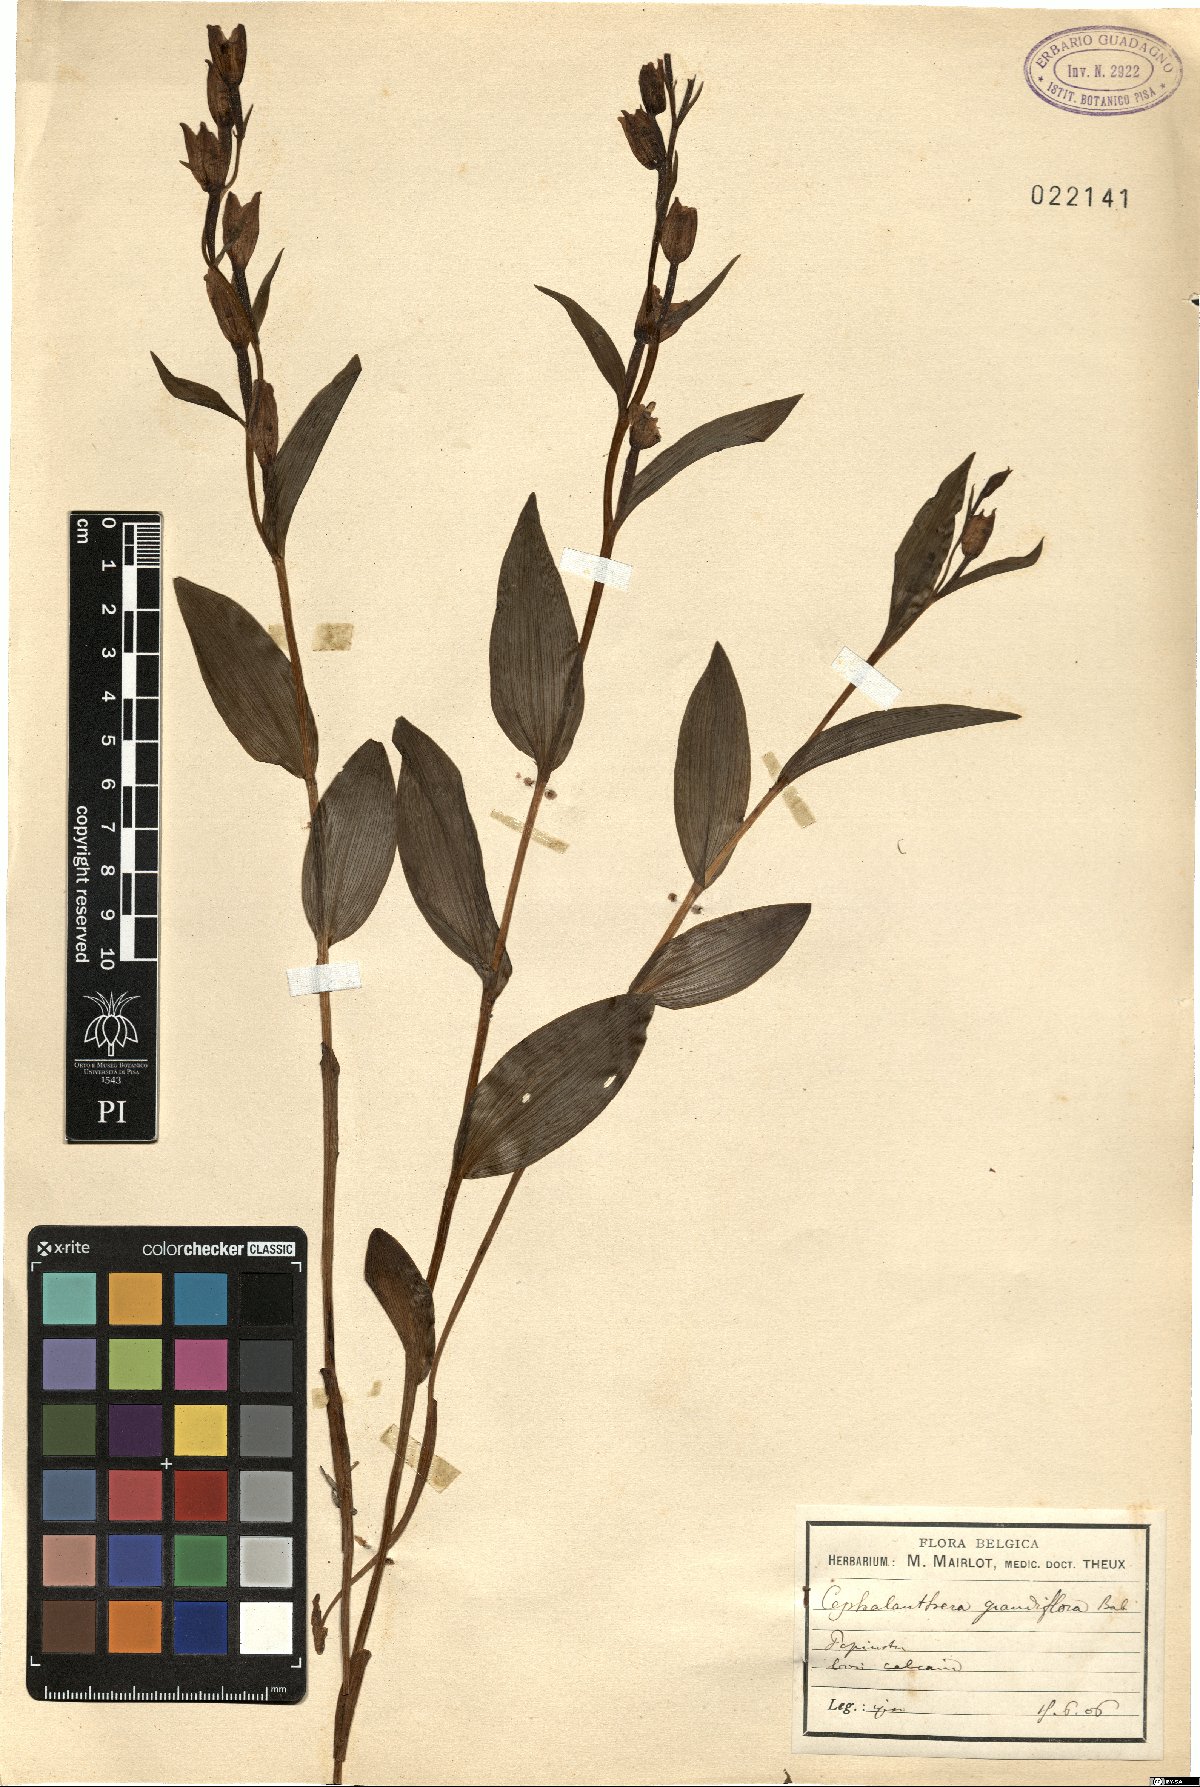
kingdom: Plantae
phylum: Tracheophyta
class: Liliopsida
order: Asparagales
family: Orchidaceae
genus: Cephalanthera
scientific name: Cephalanthera longifolia
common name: Narrow-leaved helleborine
